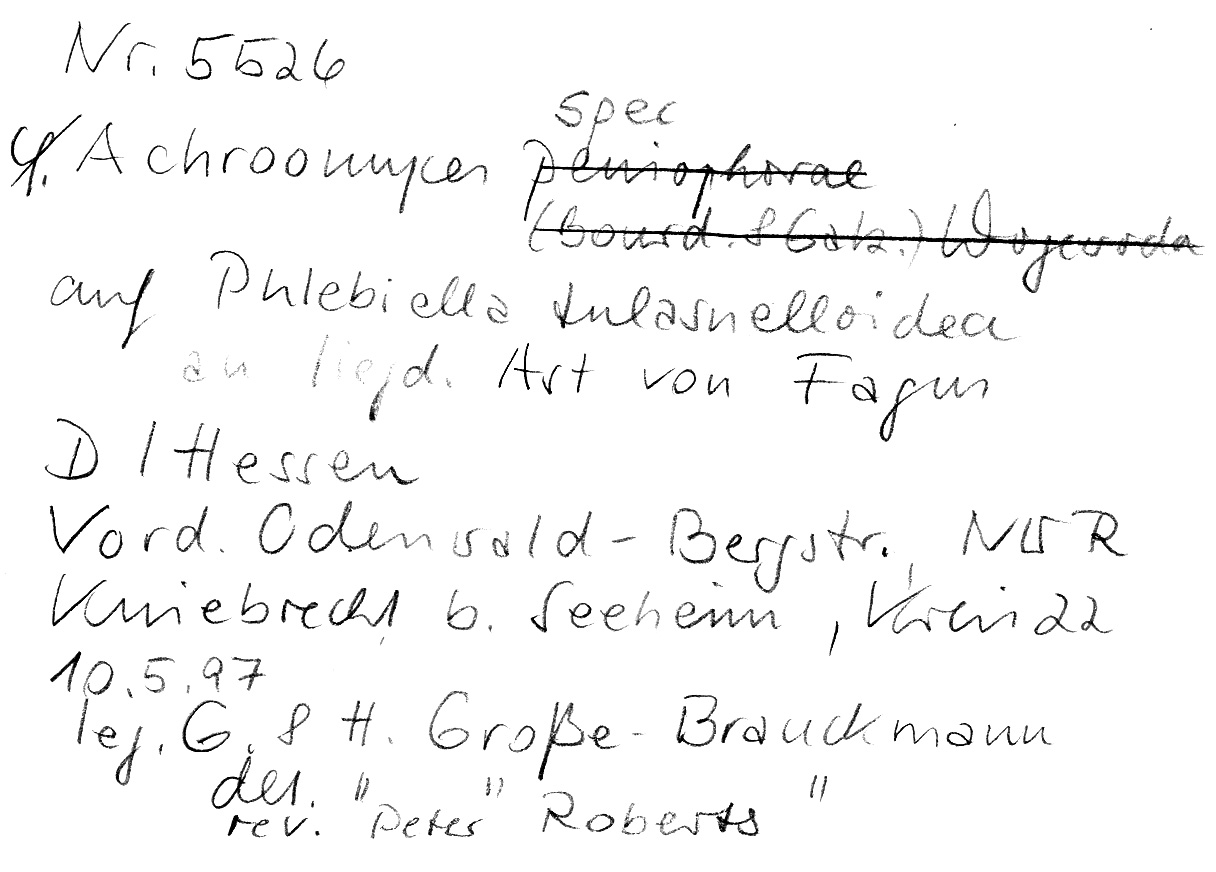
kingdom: Plantae
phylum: Tracheophyta
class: Magnoliopsida
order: Fagales
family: Fagaceae
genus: Fagus
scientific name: Fagus sylvatica
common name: Beech
